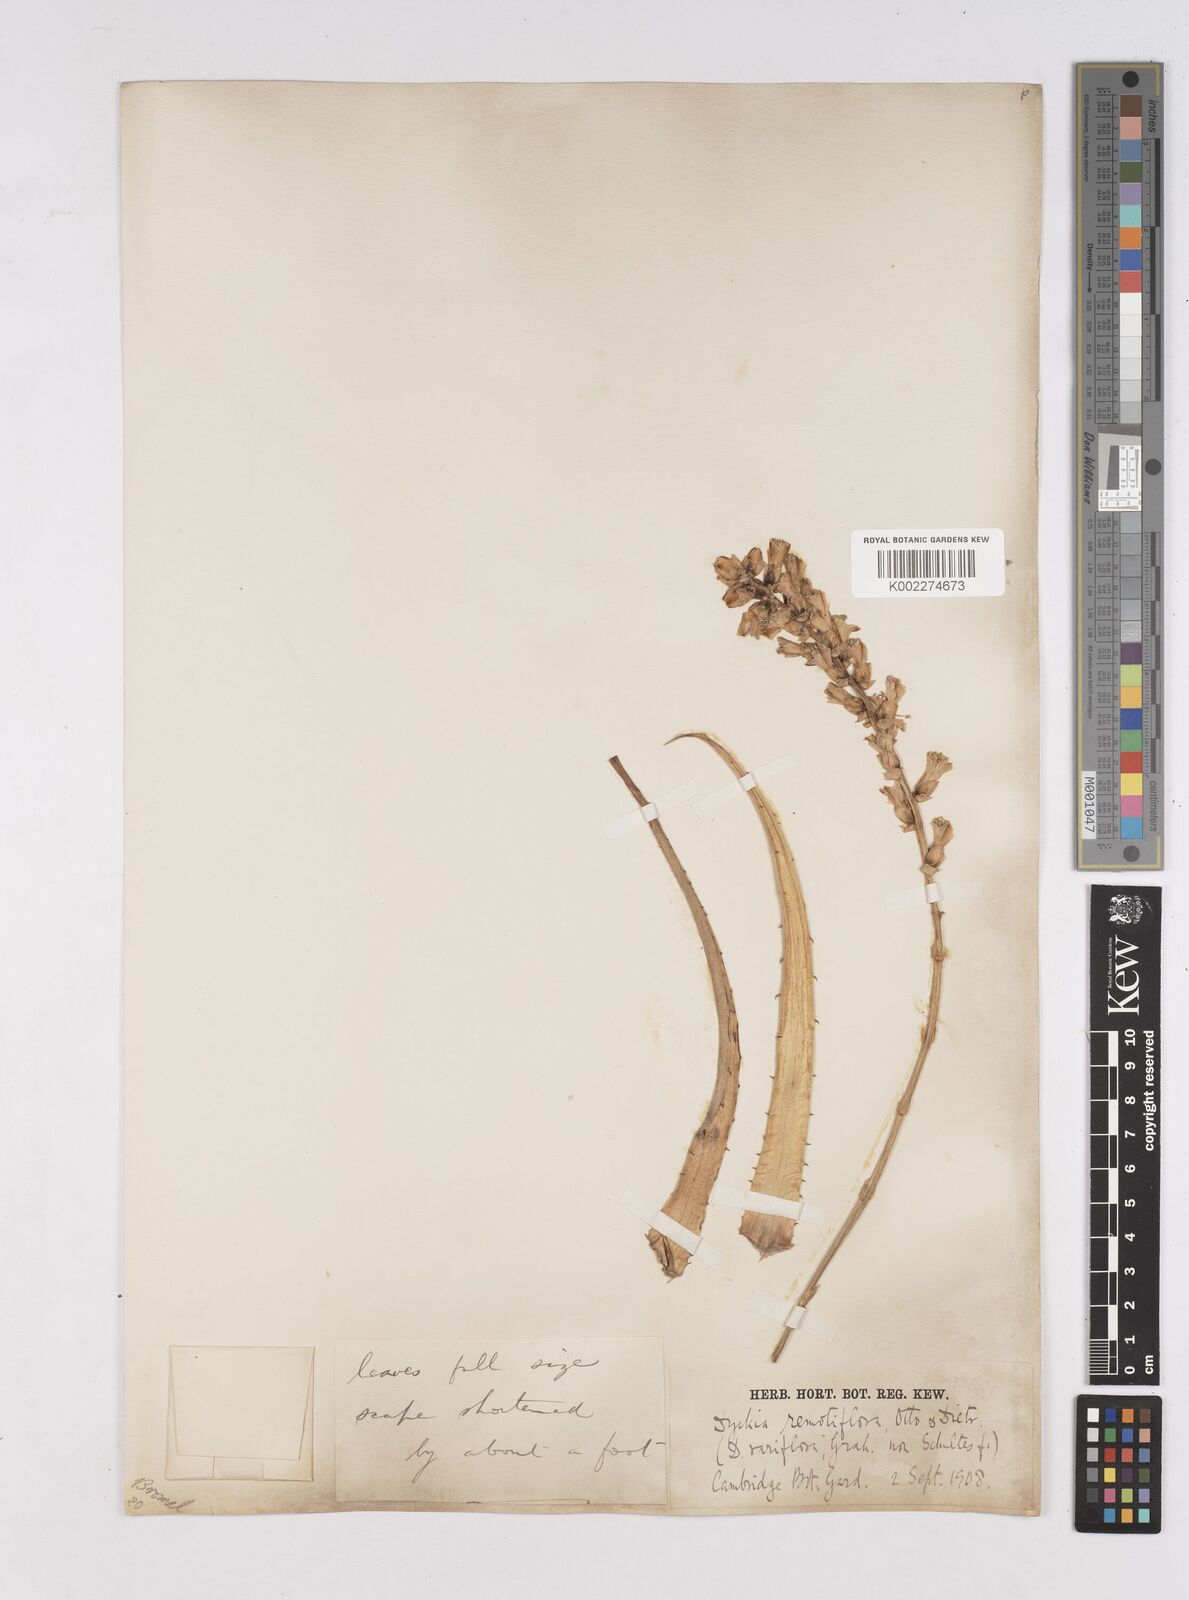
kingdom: Plantae
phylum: Tracheophyta
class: Liliopsida
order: Poales
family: Bromeliaceae
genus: Dyckia
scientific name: Dyckia remotiflora
